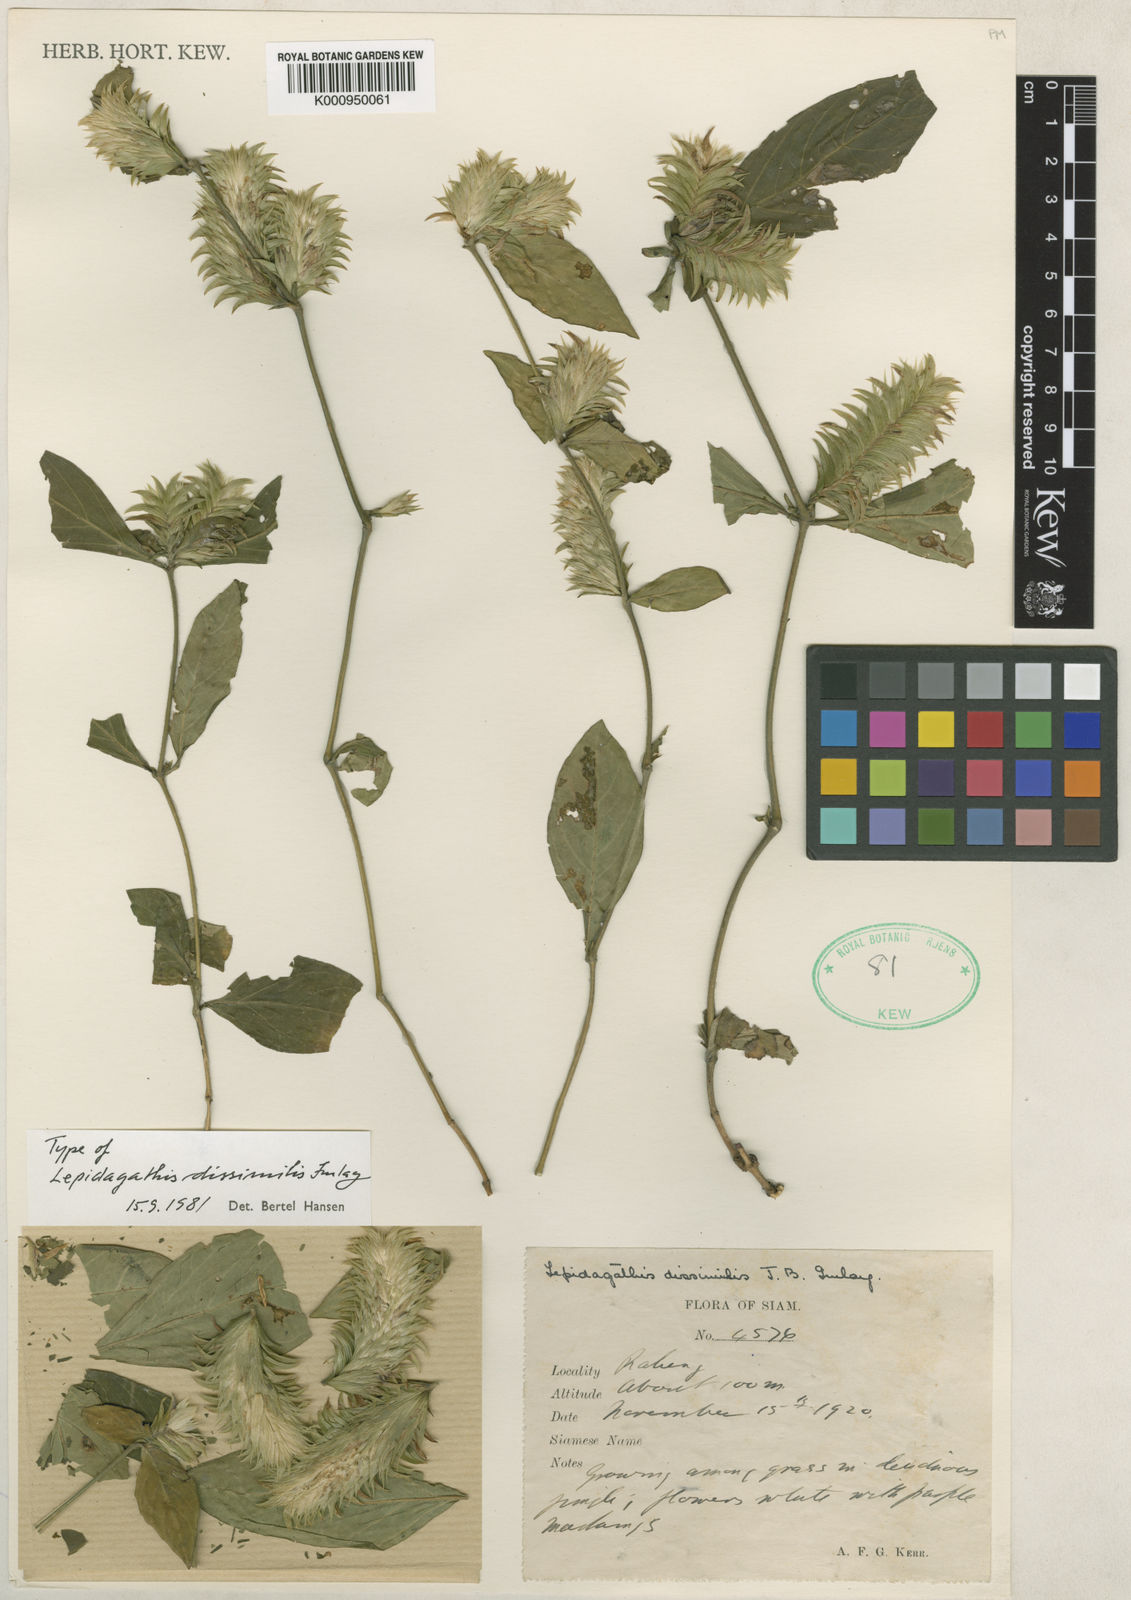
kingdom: Plantae
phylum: Tracheophyta
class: Magnoliopsida
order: Lamiales
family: Acanthaceae
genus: Lepidagathis
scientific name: Lepidagathis dissimilis
